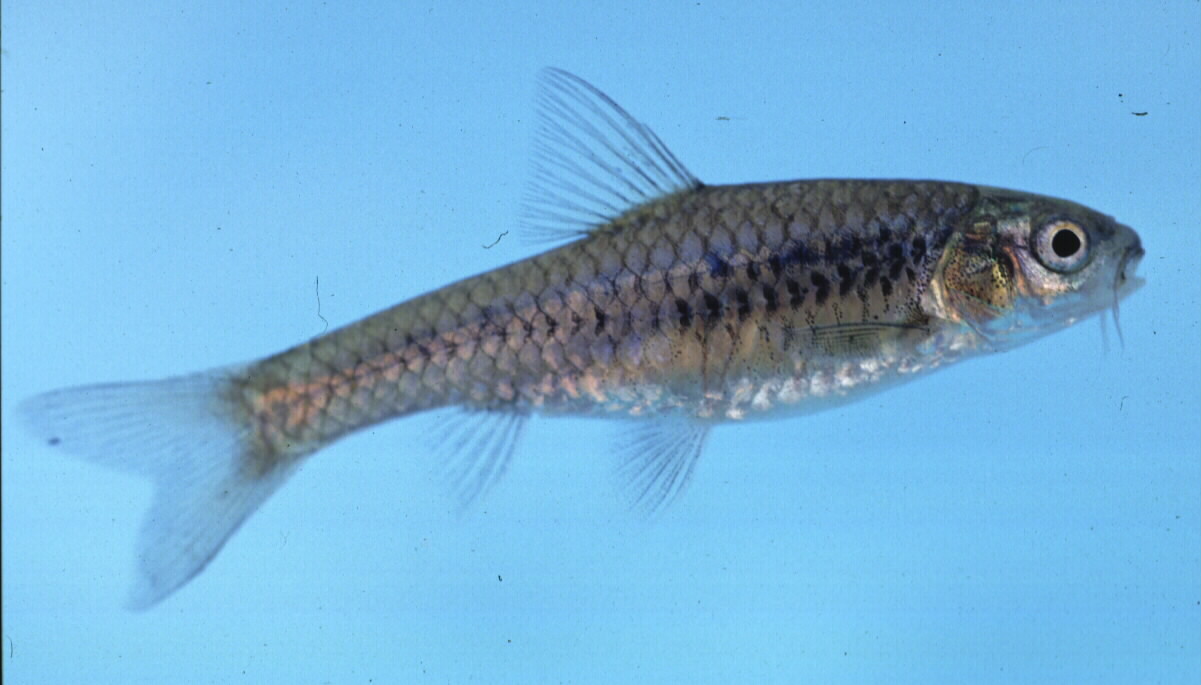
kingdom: Animalia
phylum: Chordata
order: Cypriniformes
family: Cyprinidae
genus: Enteromius
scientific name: Enteromius lineomaculatus
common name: Line-spotted barb
